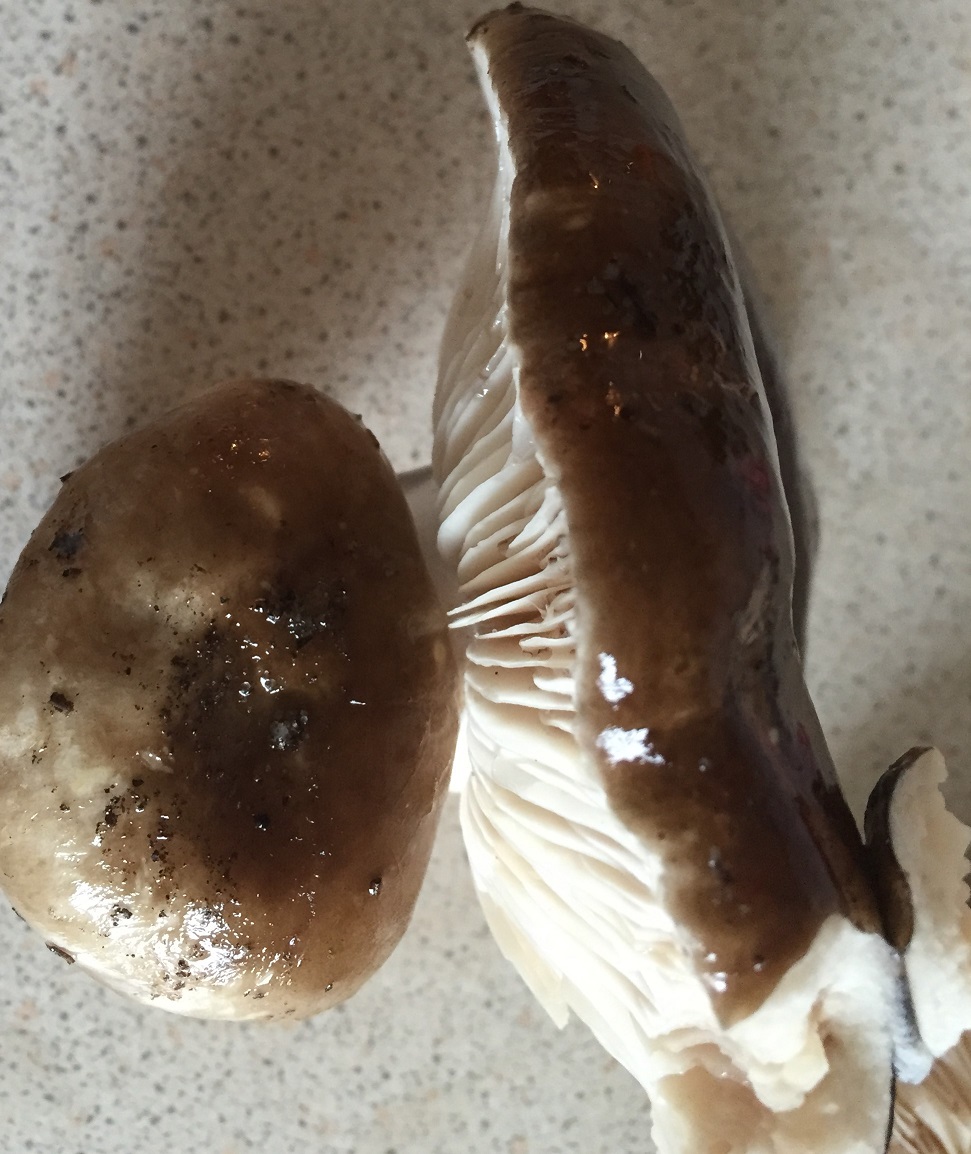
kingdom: Fungi
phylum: Basidiomycota
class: Agaricomycetes
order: Russulales
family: Russulaceae
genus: Russula
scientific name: Russula adusta
